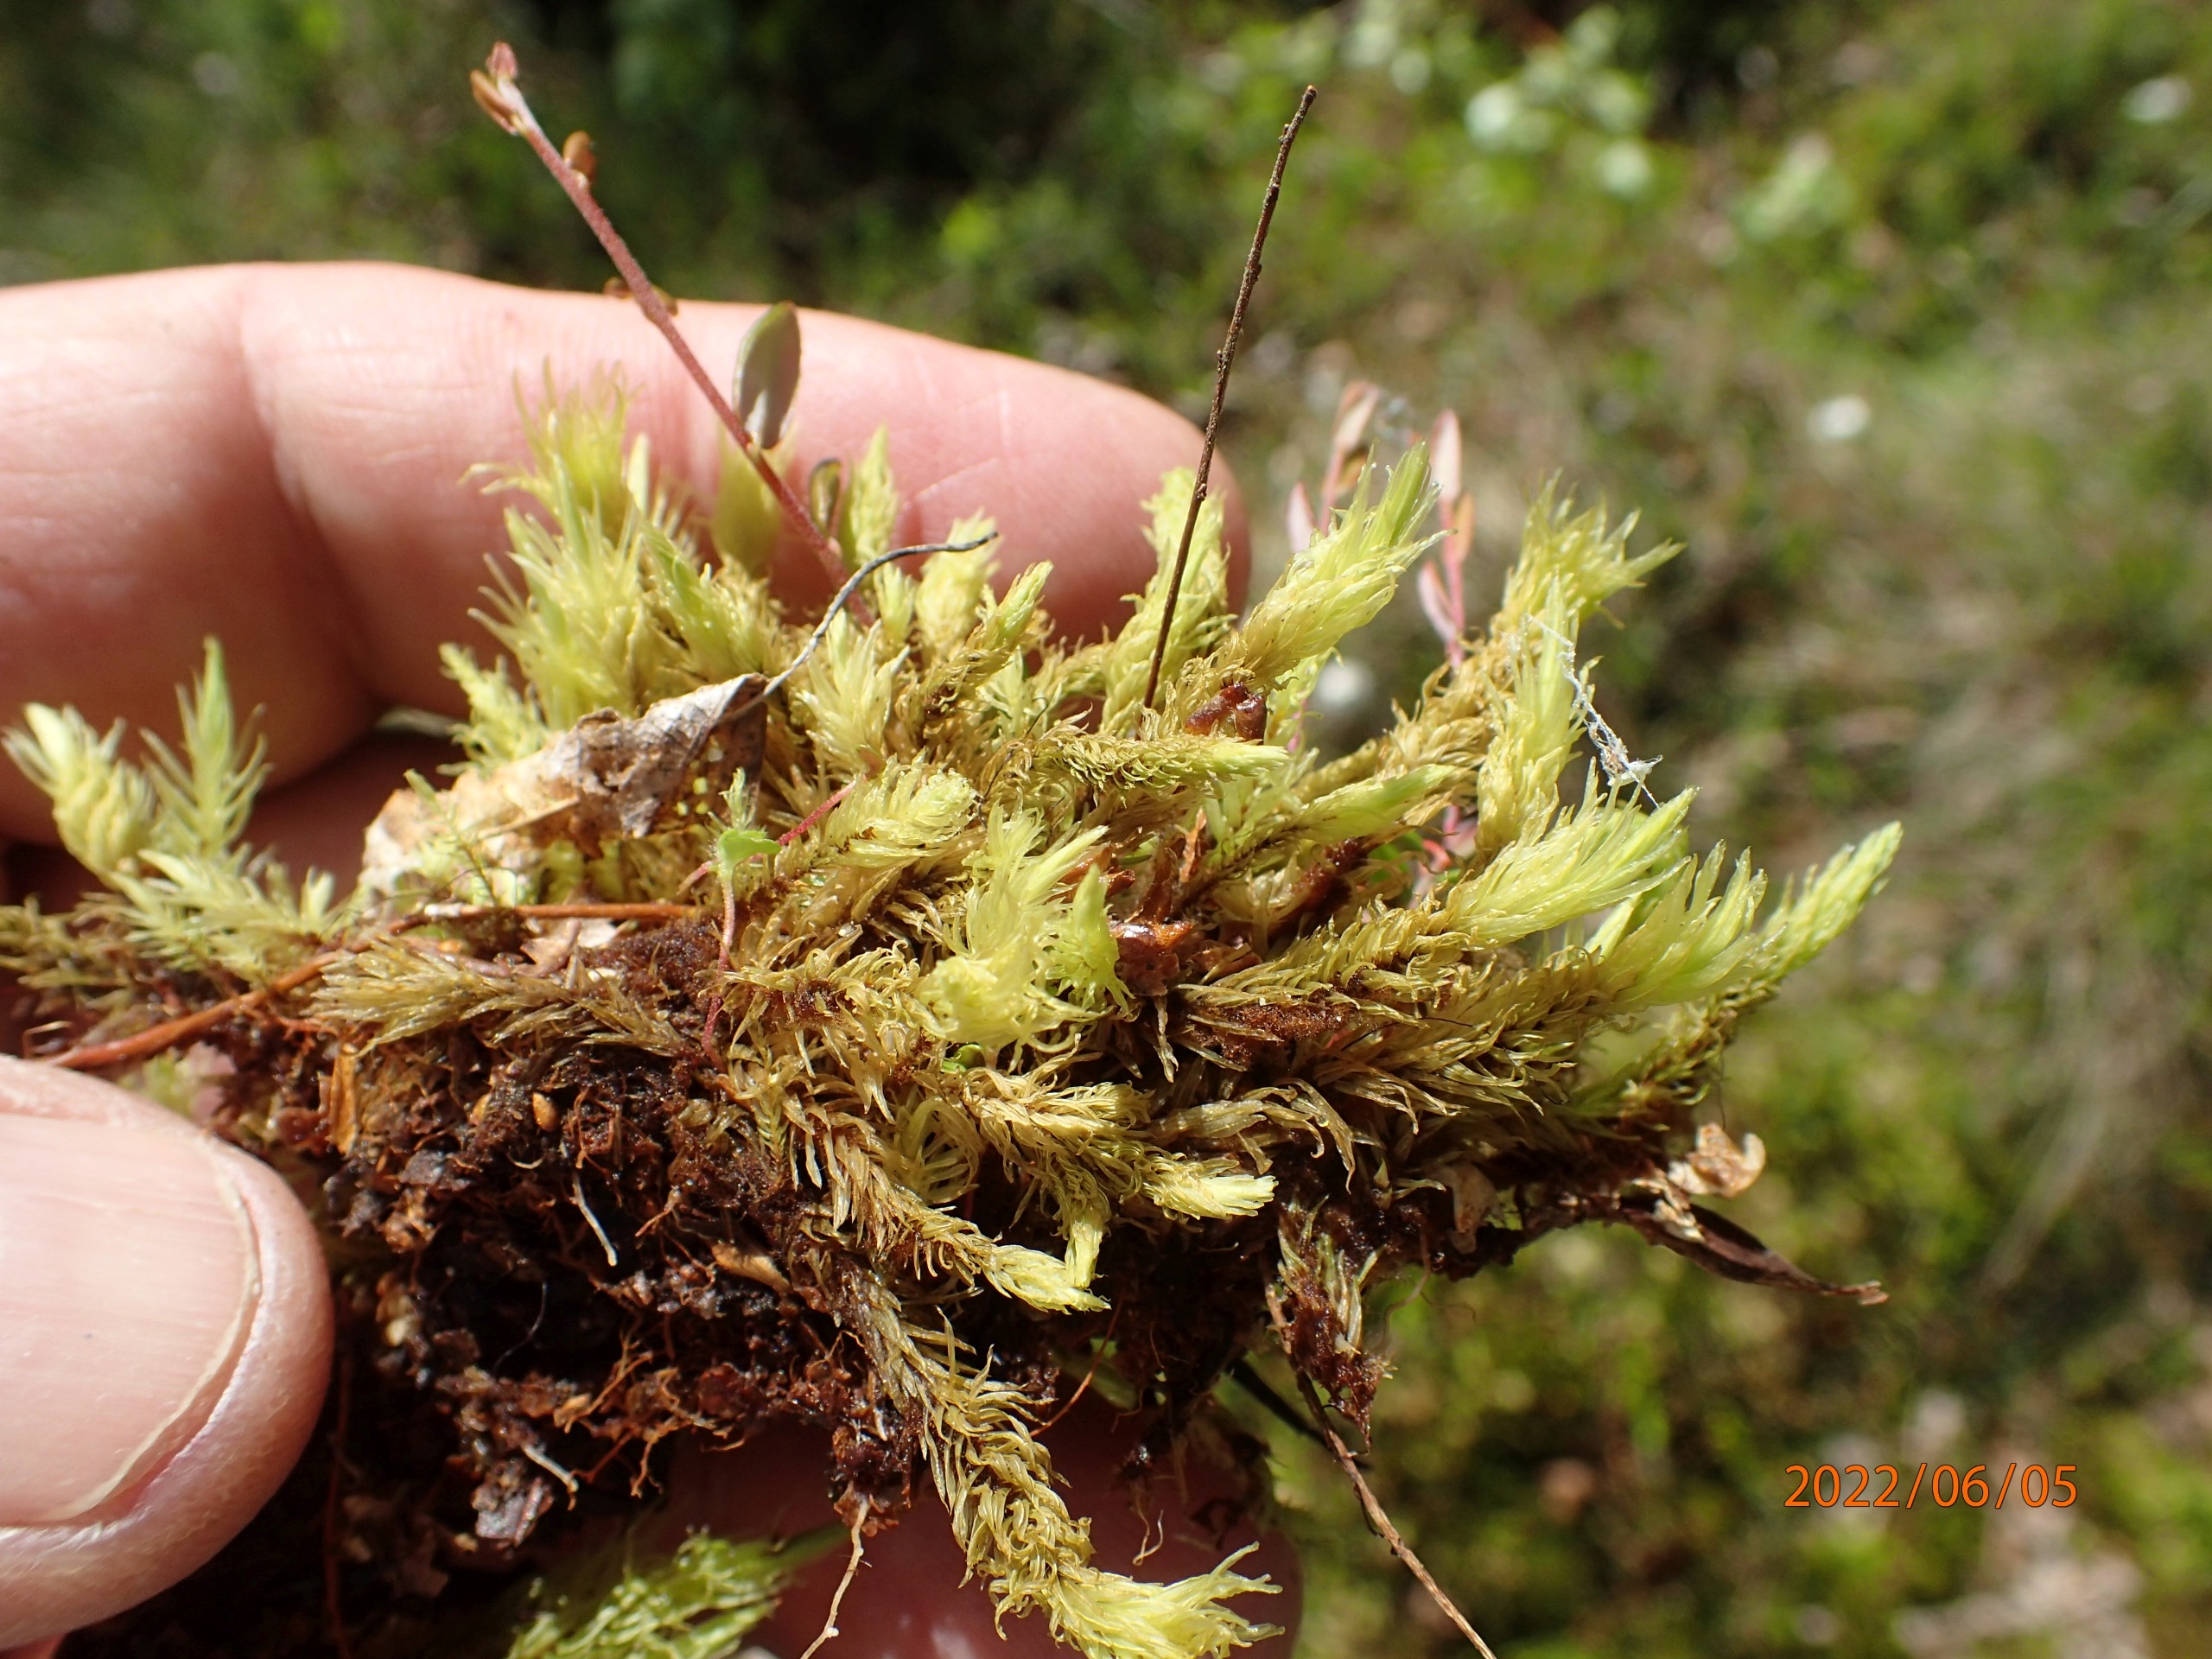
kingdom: Plantae
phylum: Bryophyta
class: Bryopsida
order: Aulacomniales
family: Aulacomniaceae
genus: Aulacomnium
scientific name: Aulacomnium palustre
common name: Almindelig filtmos
